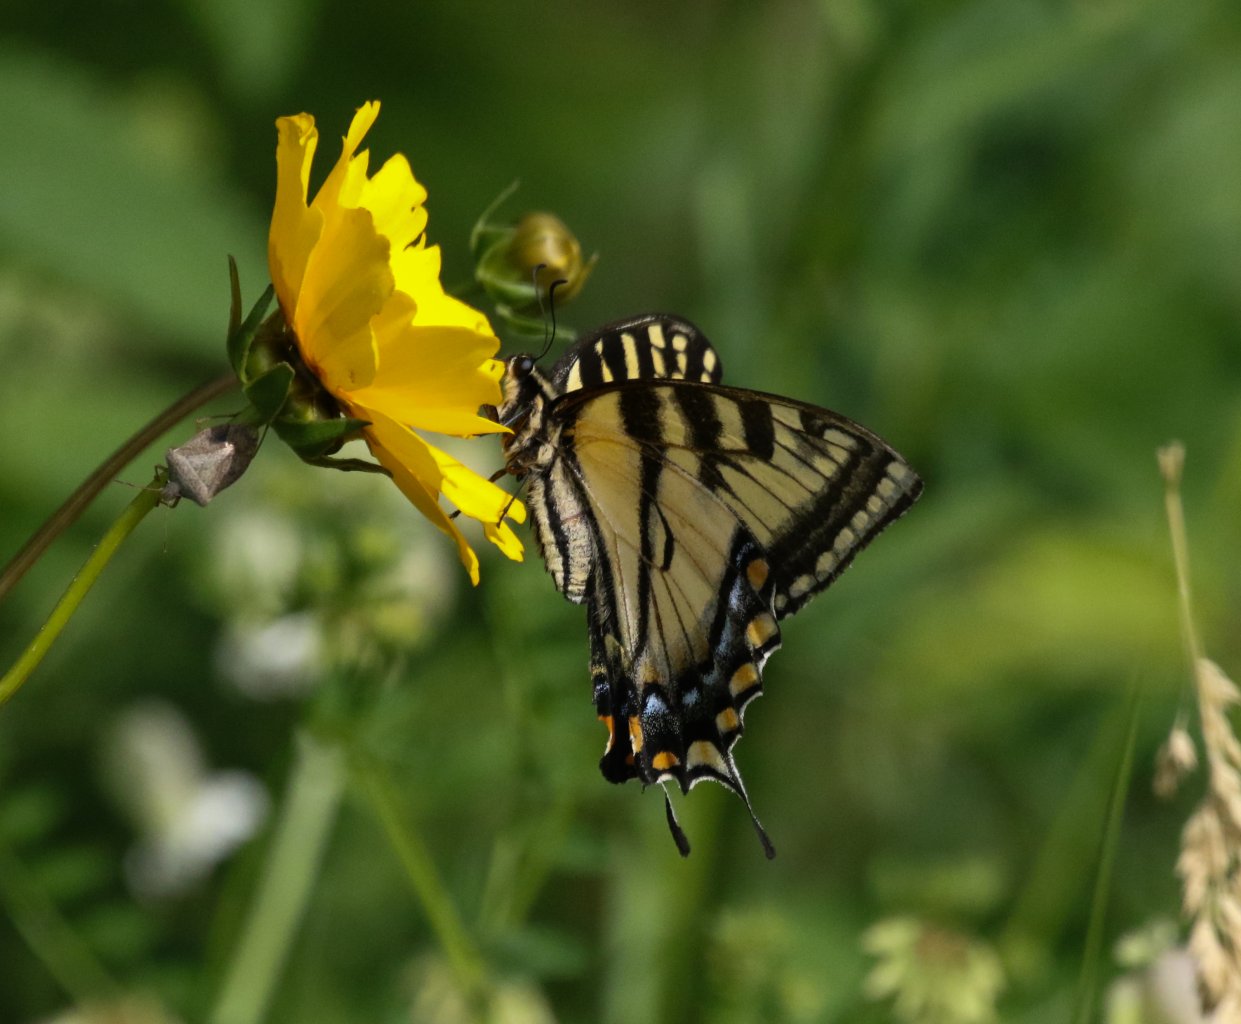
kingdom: Animalia
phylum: Arthropoda
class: Insecta
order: Lepidoptera
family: Papilionidae
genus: Pterourus
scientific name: Pterourus canadensis
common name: Canadian Tiger Swallowtail
